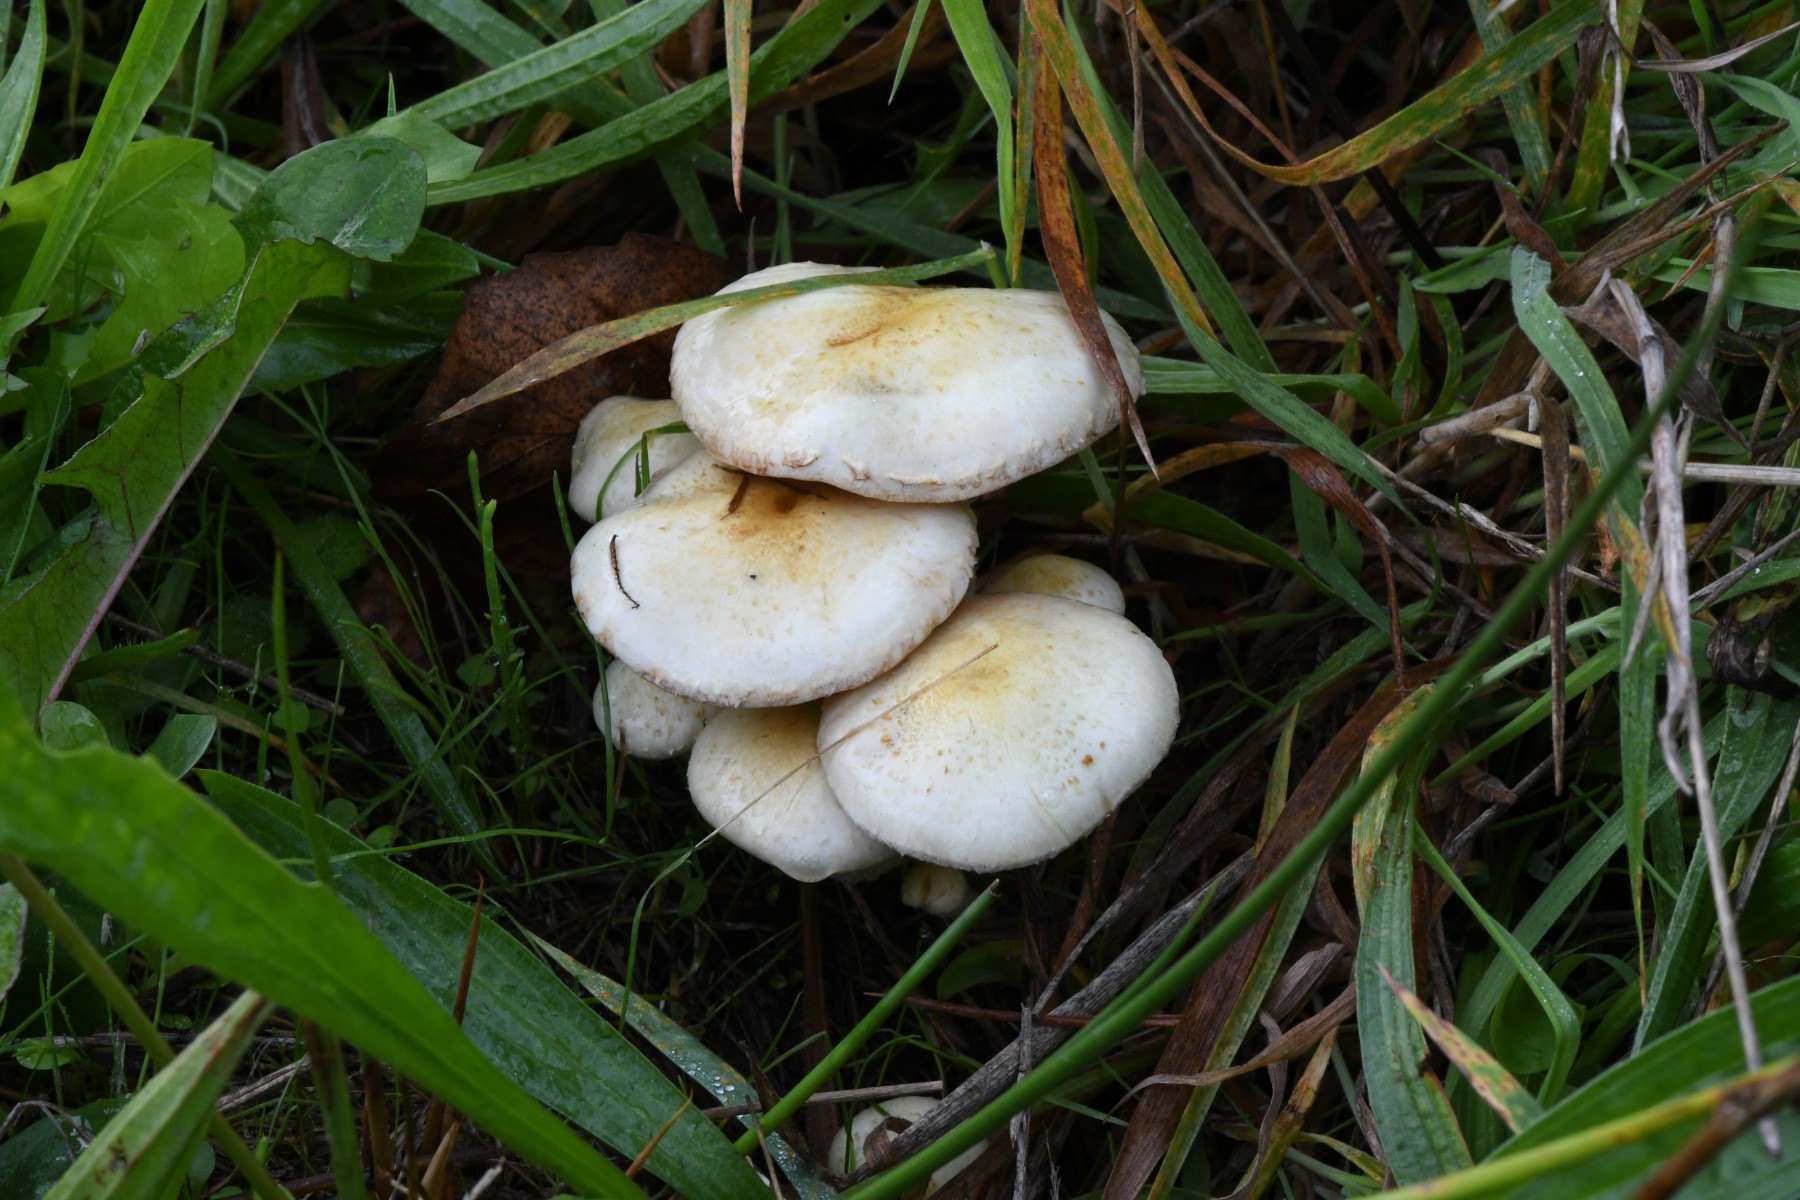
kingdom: Fungi
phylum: Basidiomycota
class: Agaricomycetes
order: Agaricales
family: Strophariaceae
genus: Pholiota
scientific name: Pholiota gummosa
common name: grøngul skælhat
